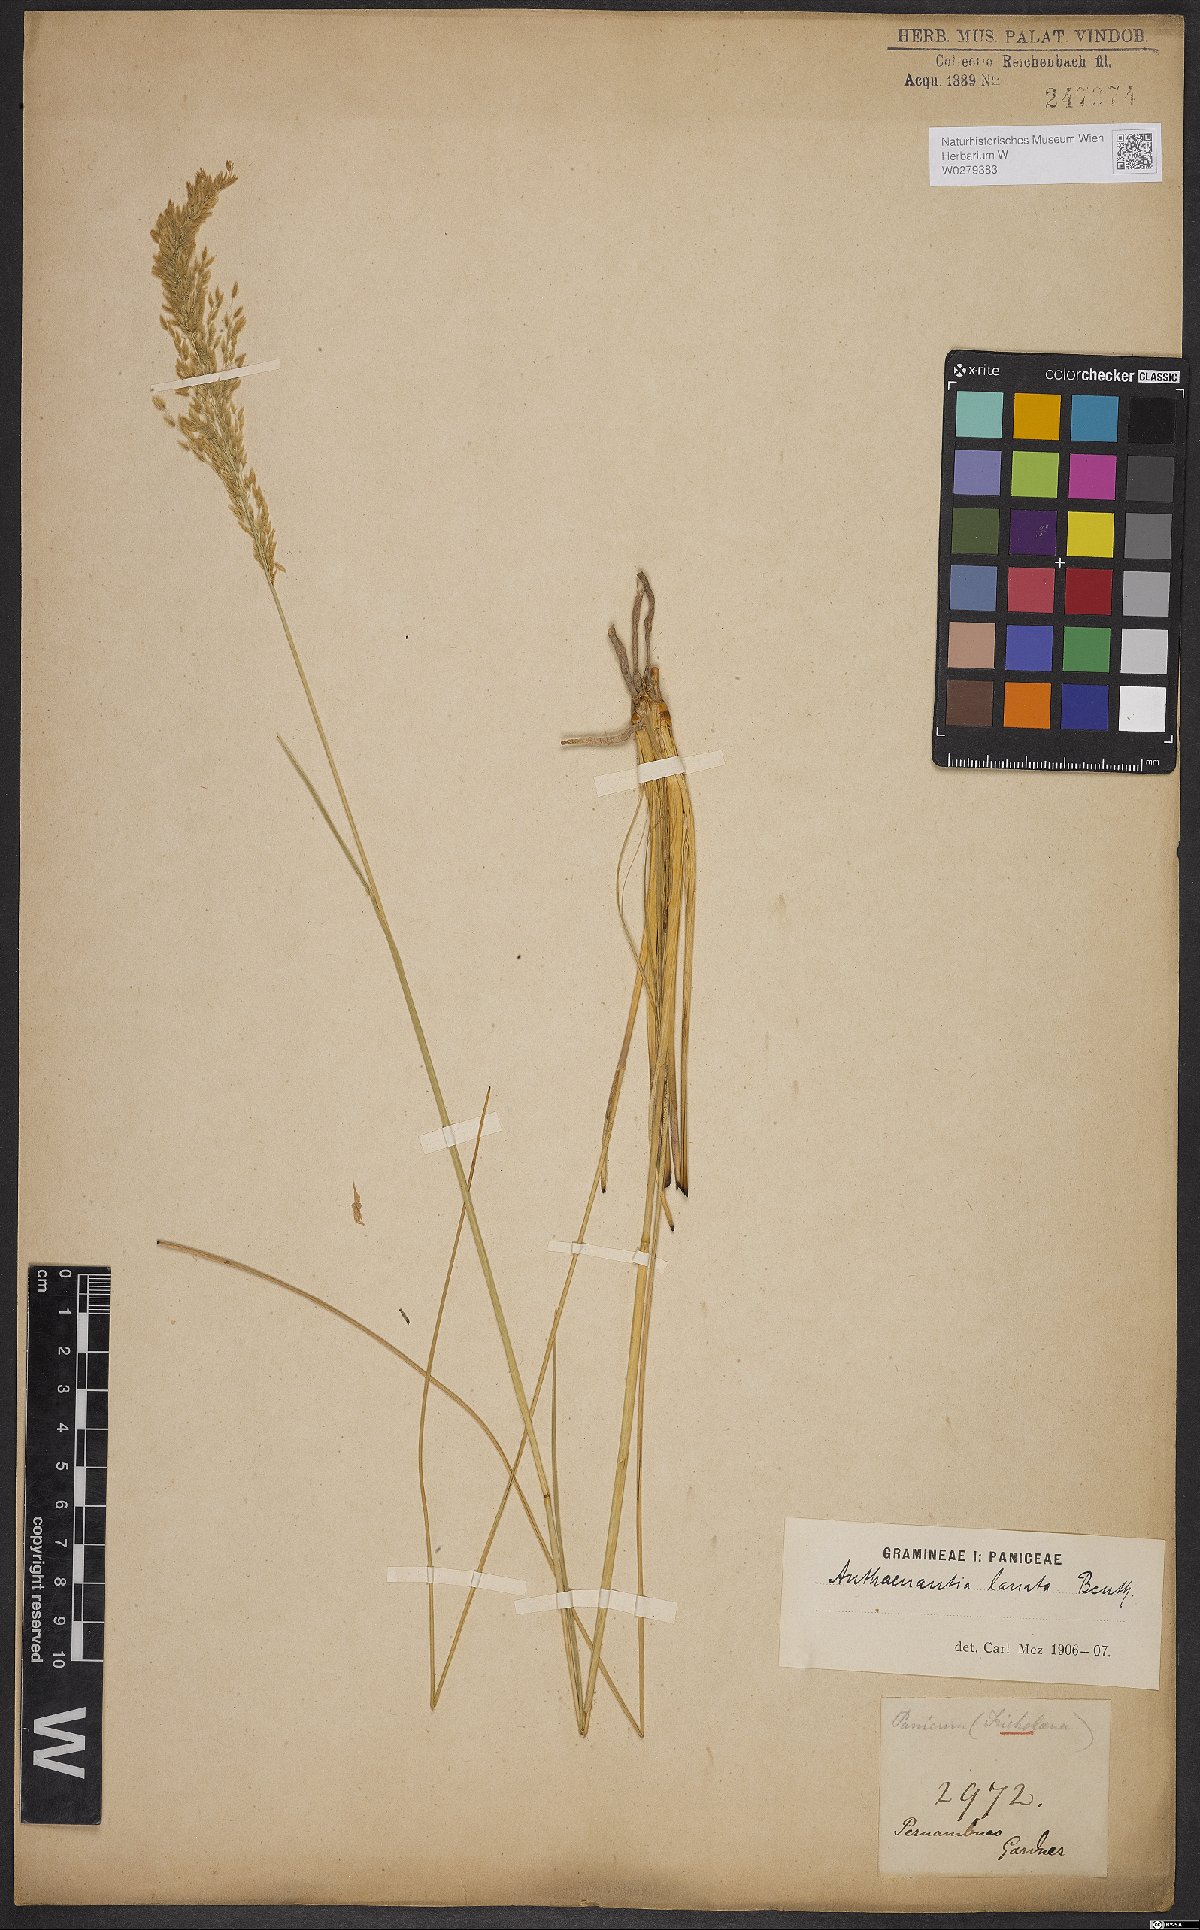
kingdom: Plantae
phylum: Tracheophyta
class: Liliopsida
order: Poales
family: Poaceae
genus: Anthaenantia
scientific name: Anthaenantia lanata
